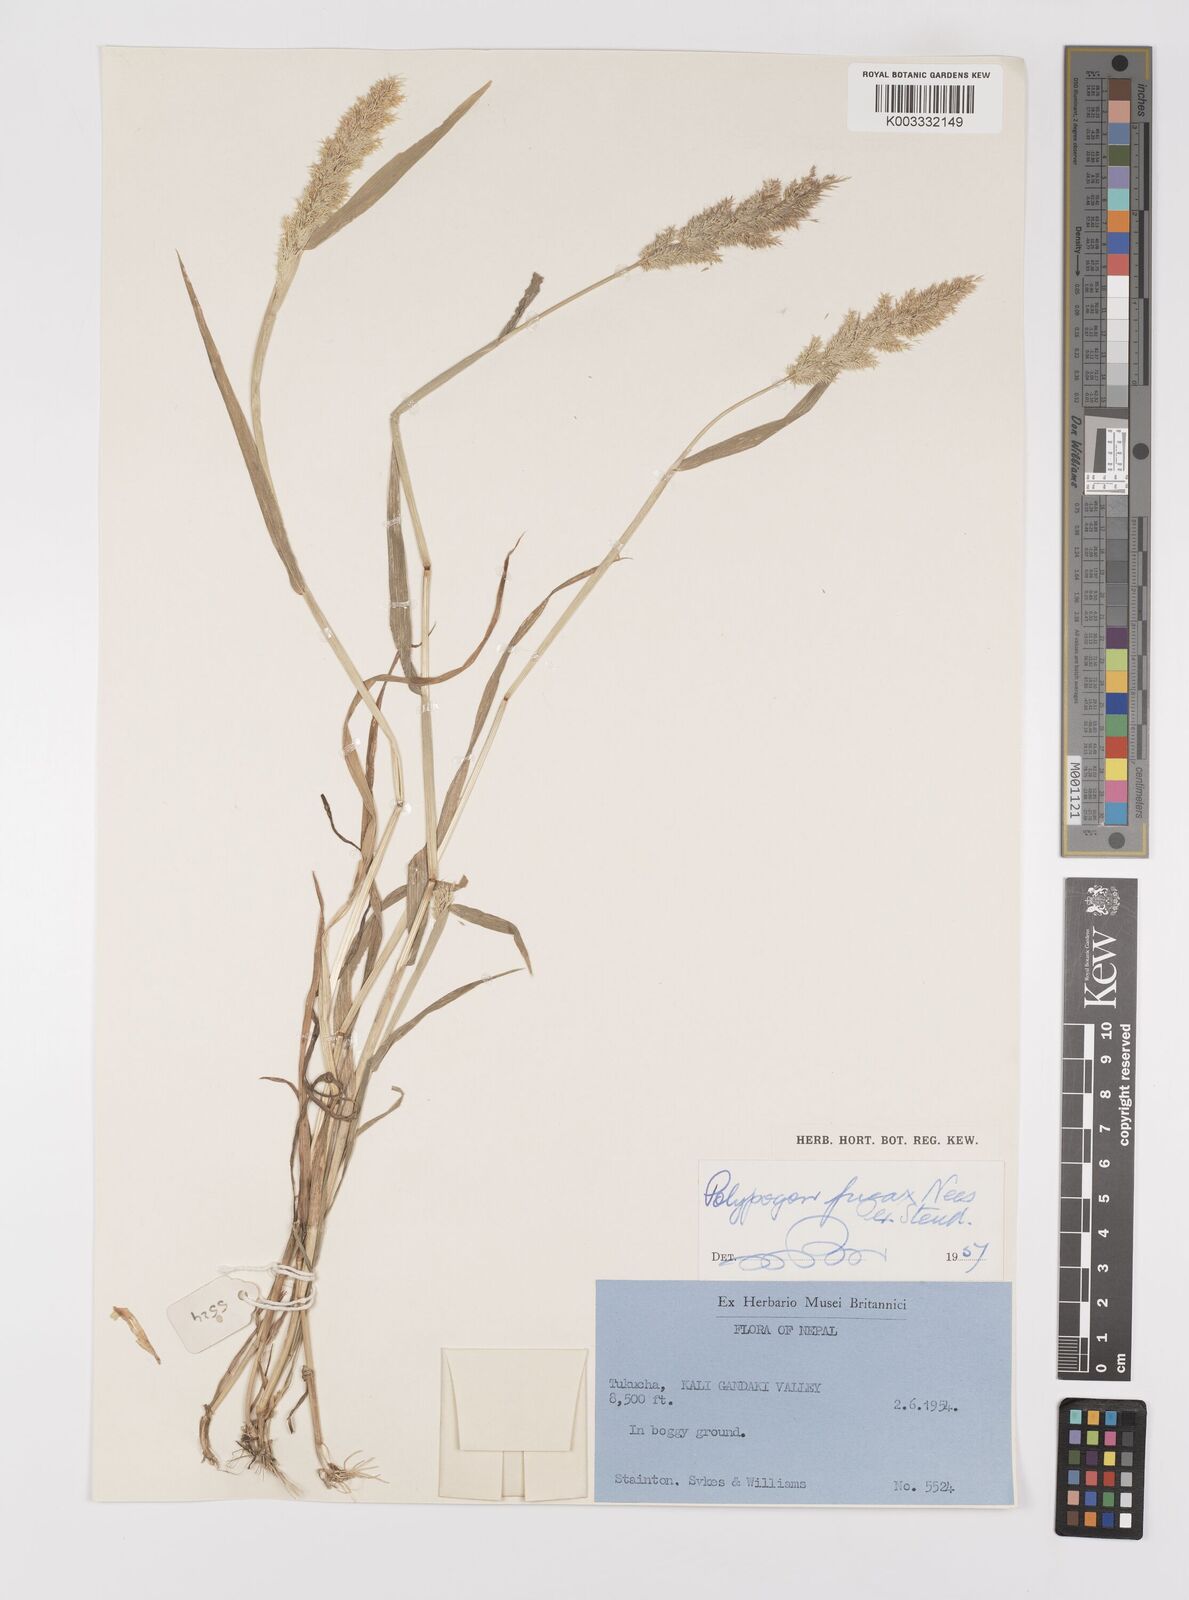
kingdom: Plantae
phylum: Tracheophyta
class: Liliopsida
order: Poales
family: Poaceae
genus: Polypogon
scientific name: Polypogon fugax
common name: Asia minor bluegrass
